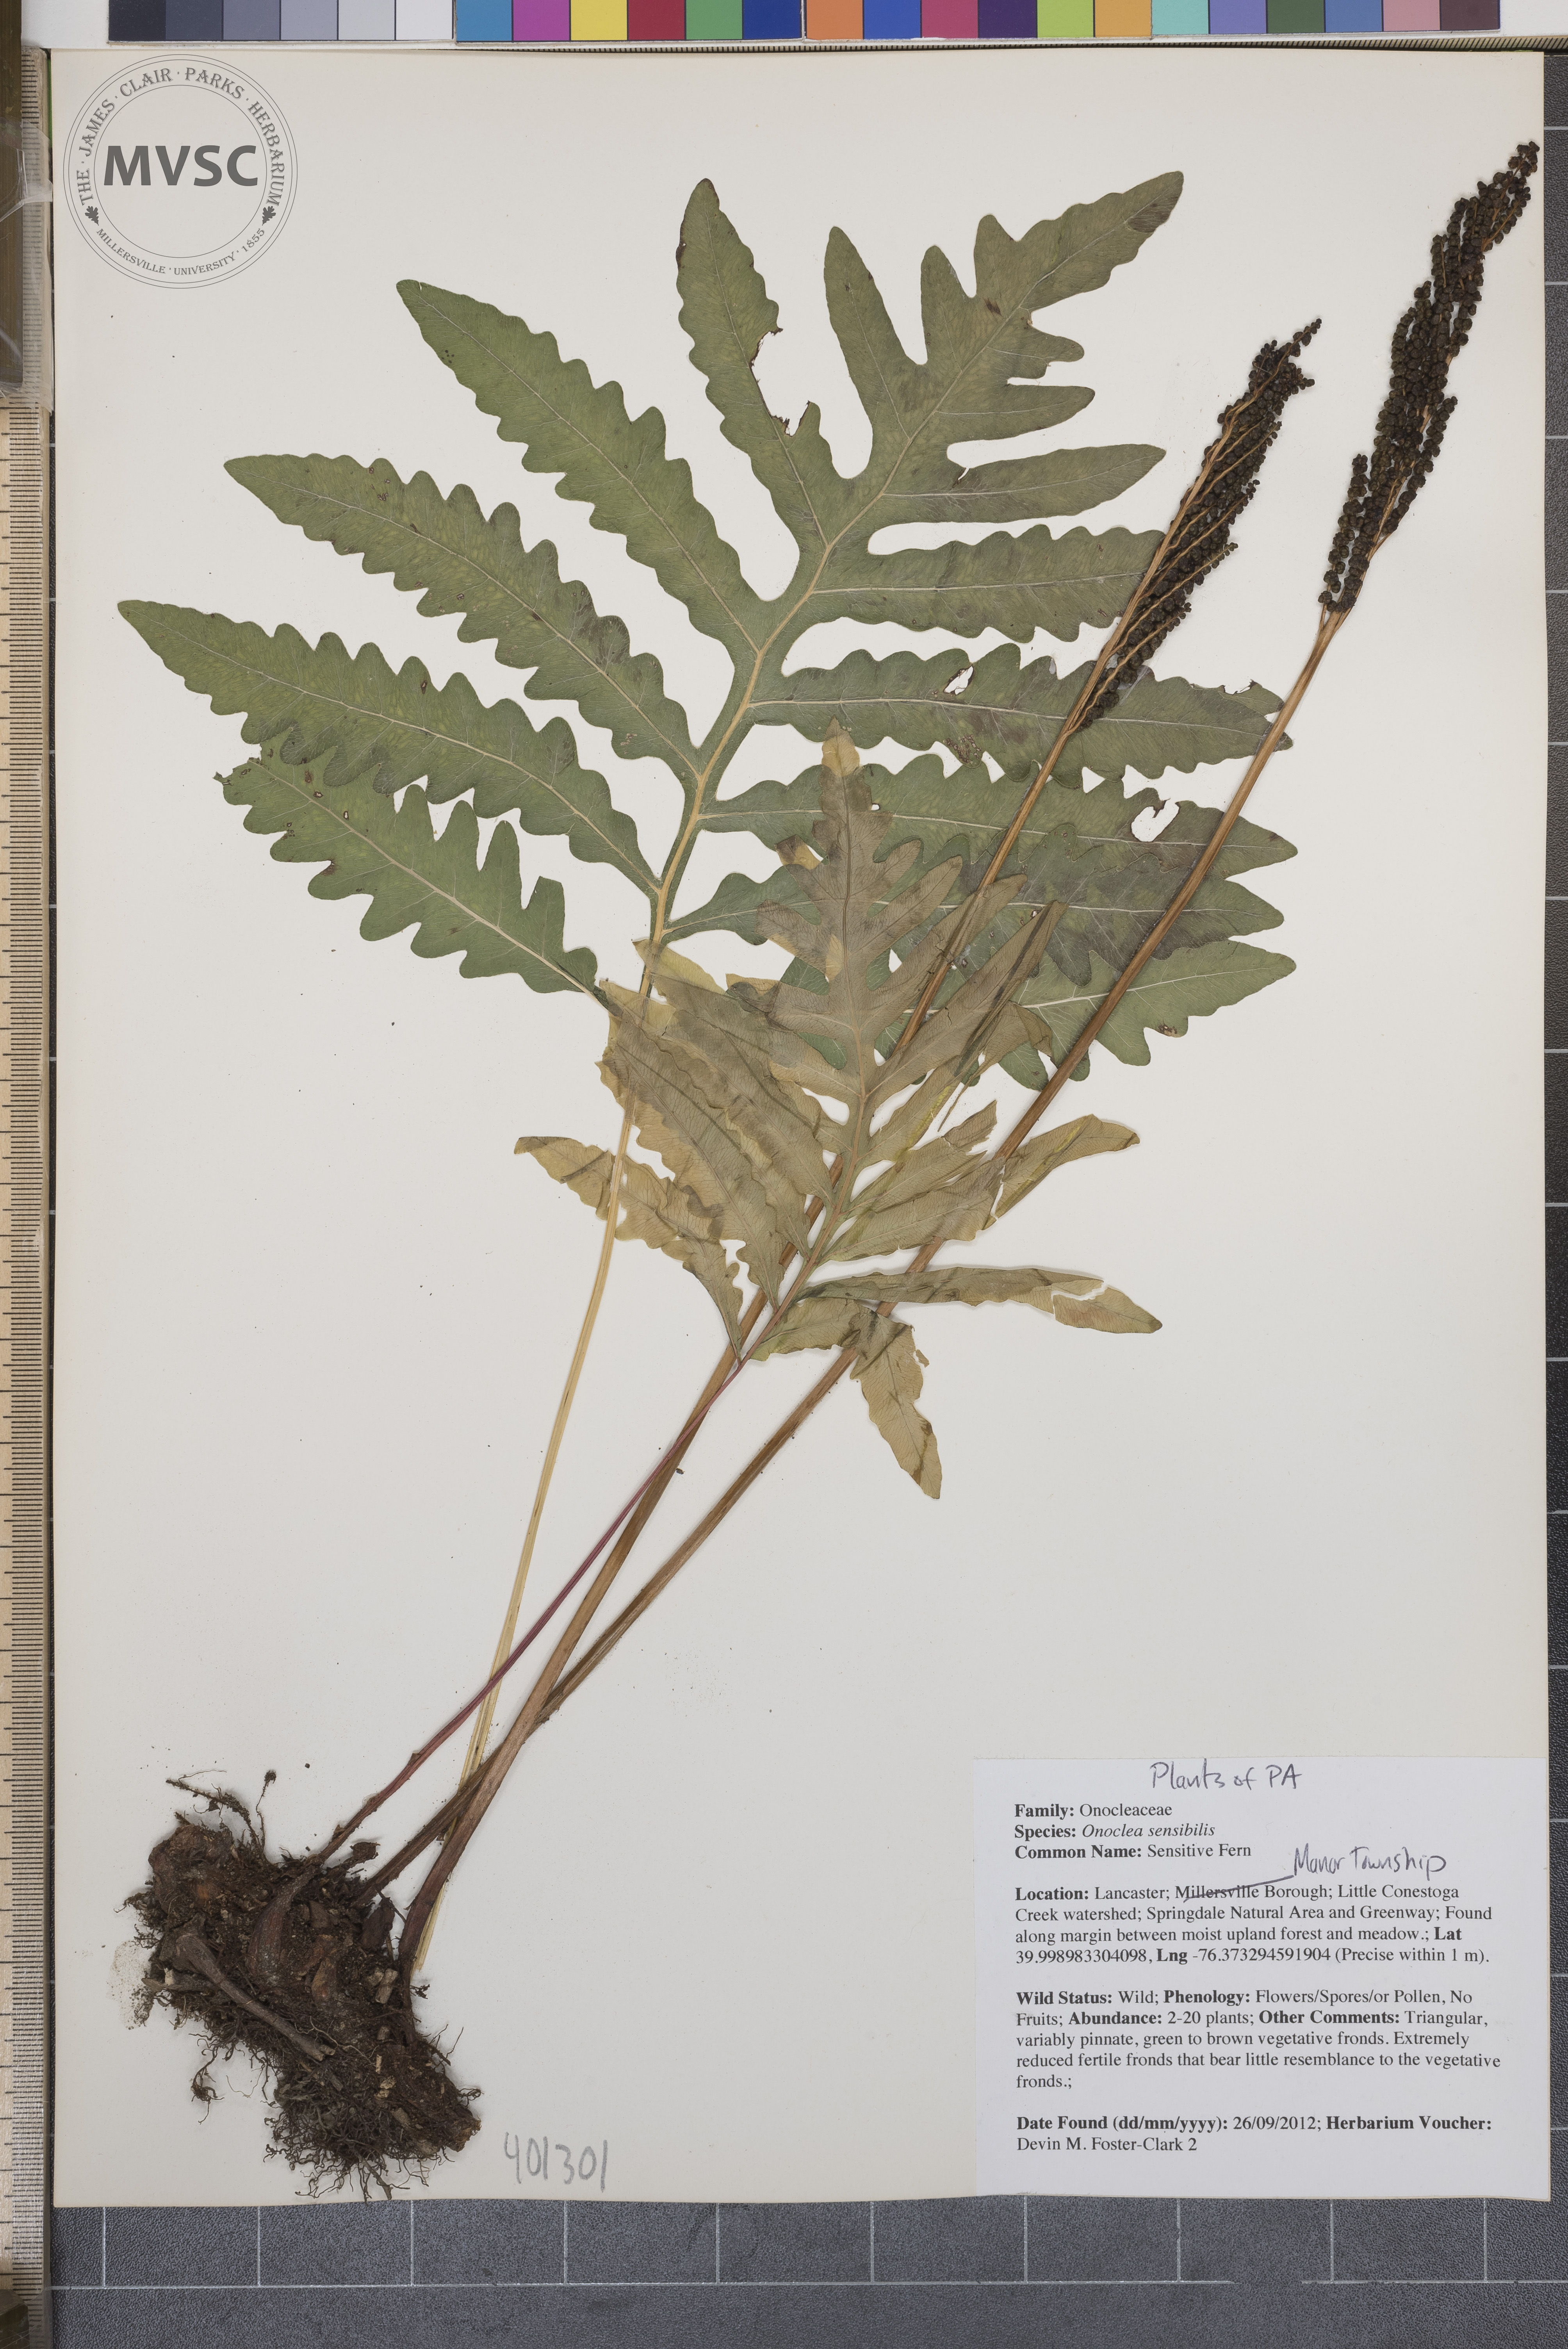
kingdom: Plantae
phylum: Tracheophyta
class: Polypodiopsida
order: Polypodiales
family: Onocleaceae
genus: Onoclea
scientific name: Onoclea sensibilis
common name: Sensitive Fern
